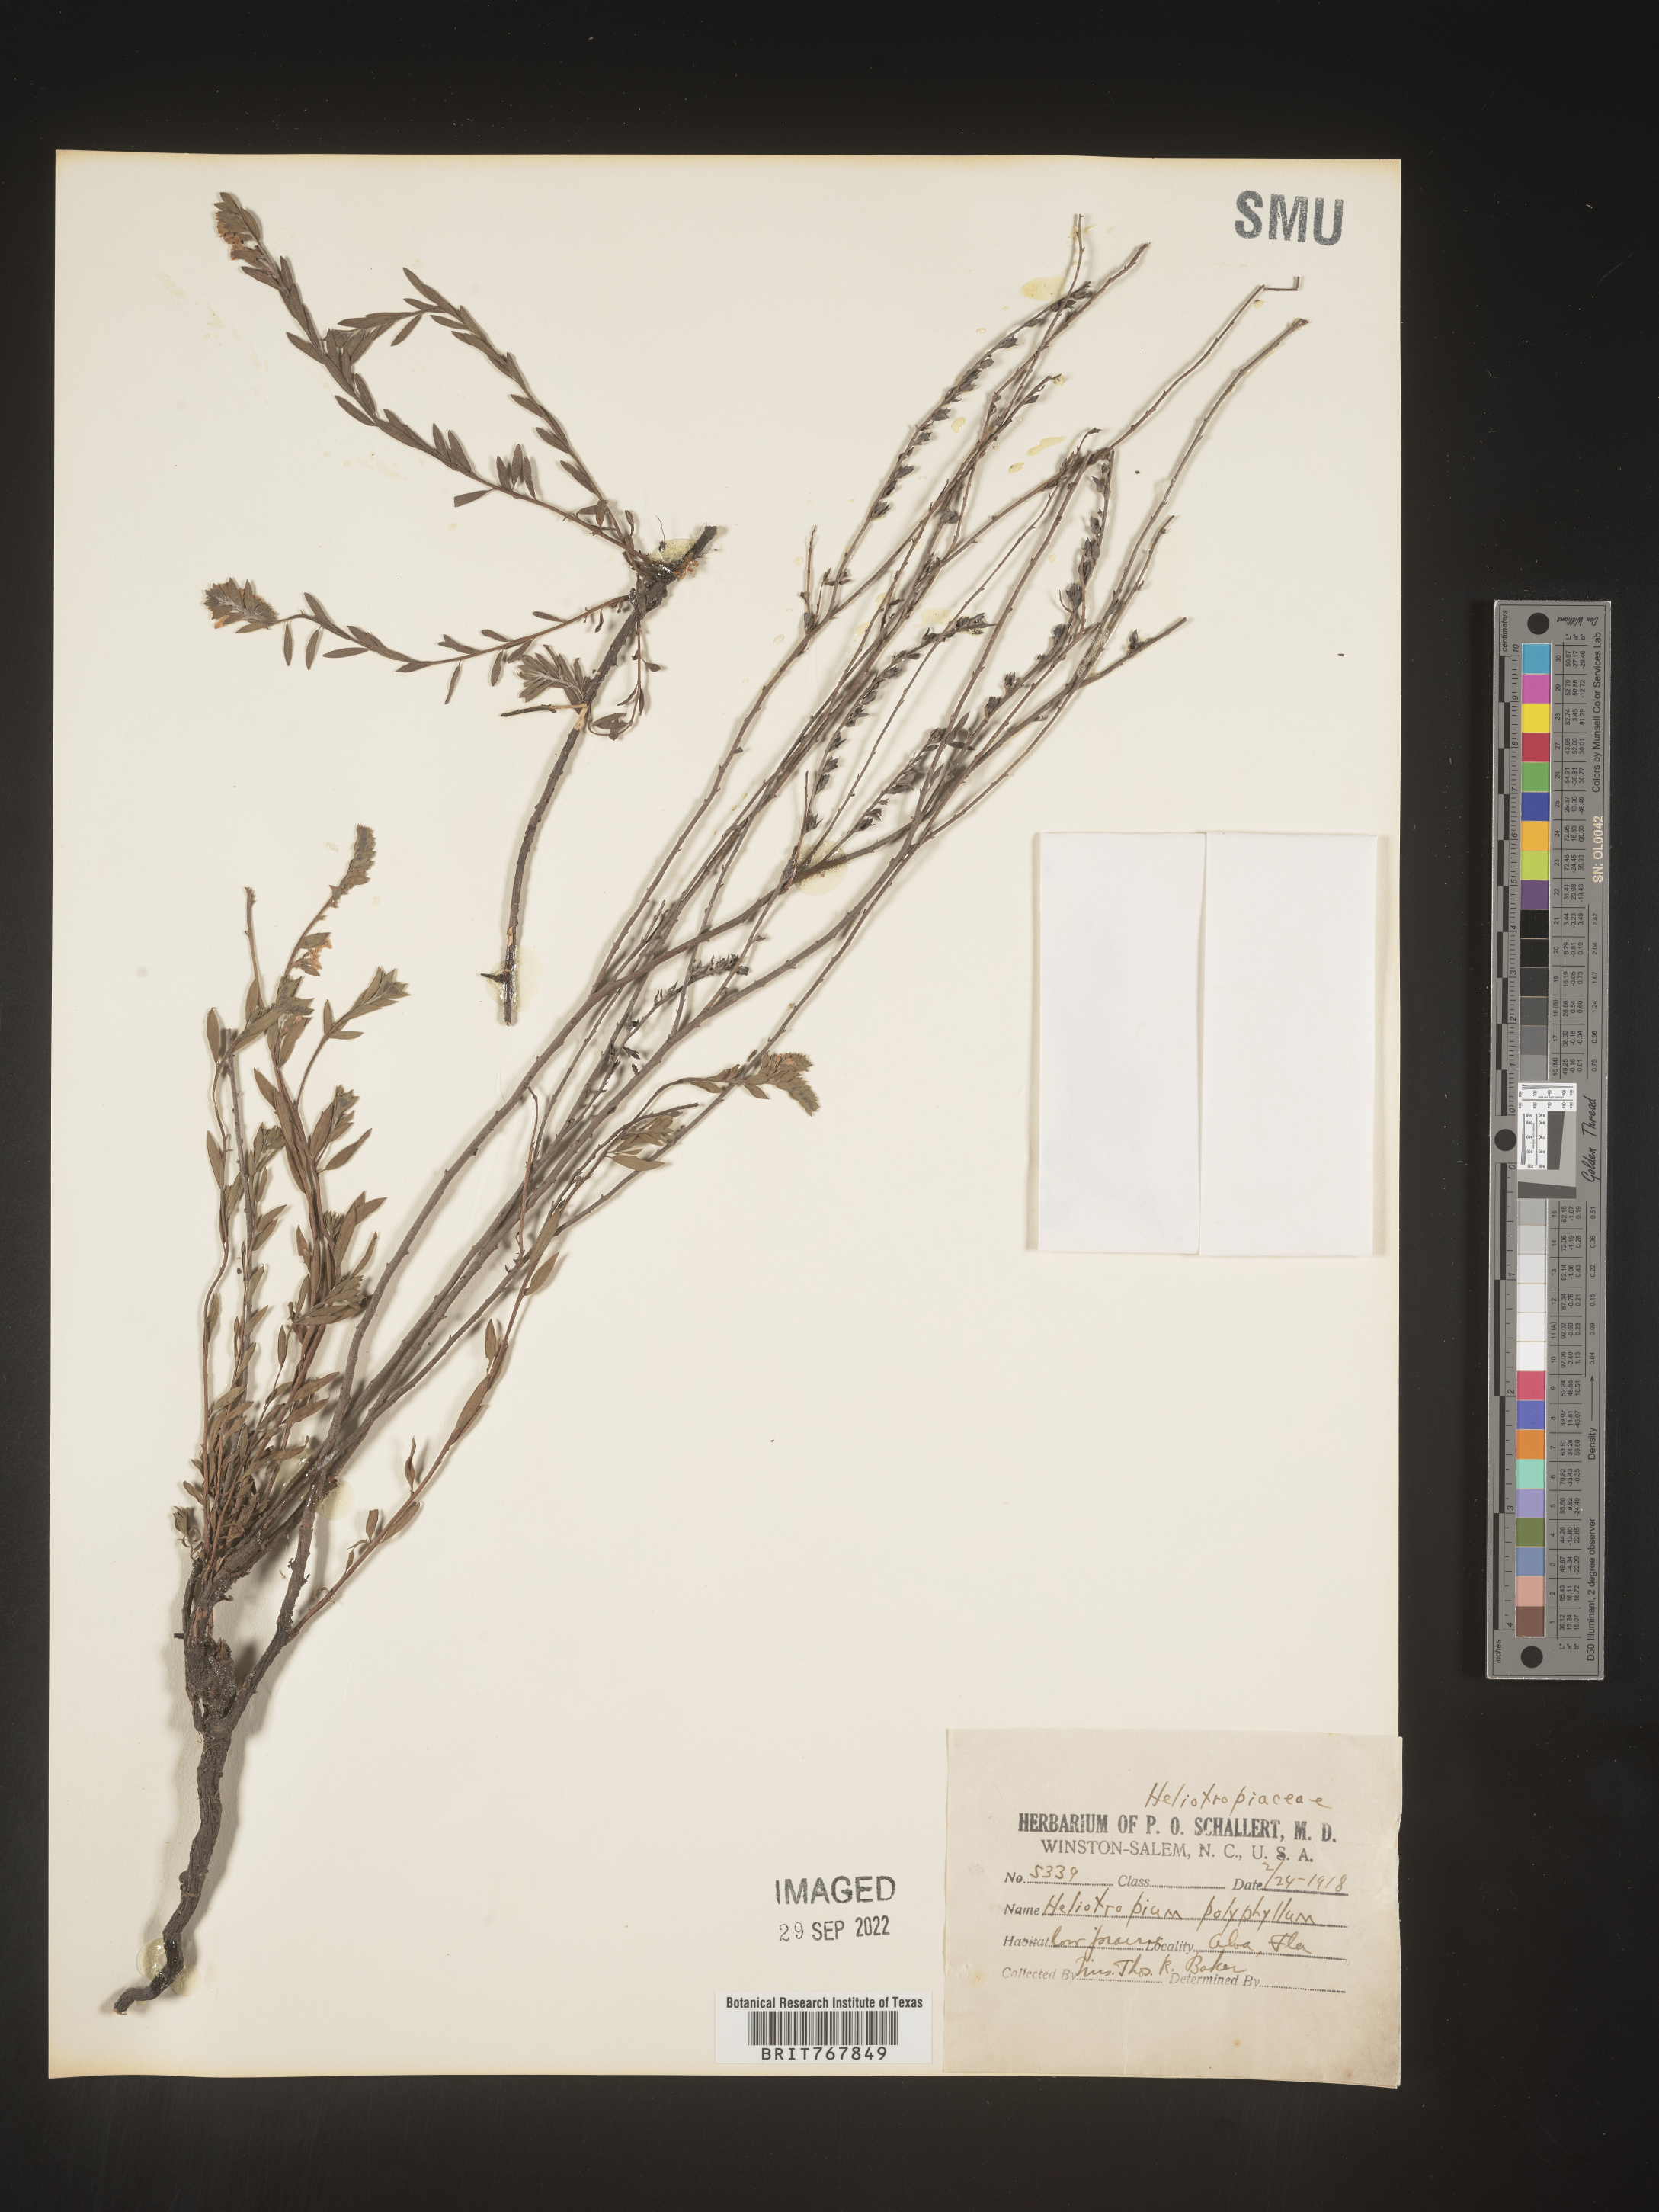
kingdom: Plantae
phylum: Tracheophyta
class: Magnoliopsida
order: Boraginales
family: Heliotropiaceae
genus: Heliotropium
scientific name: Heliotropium
